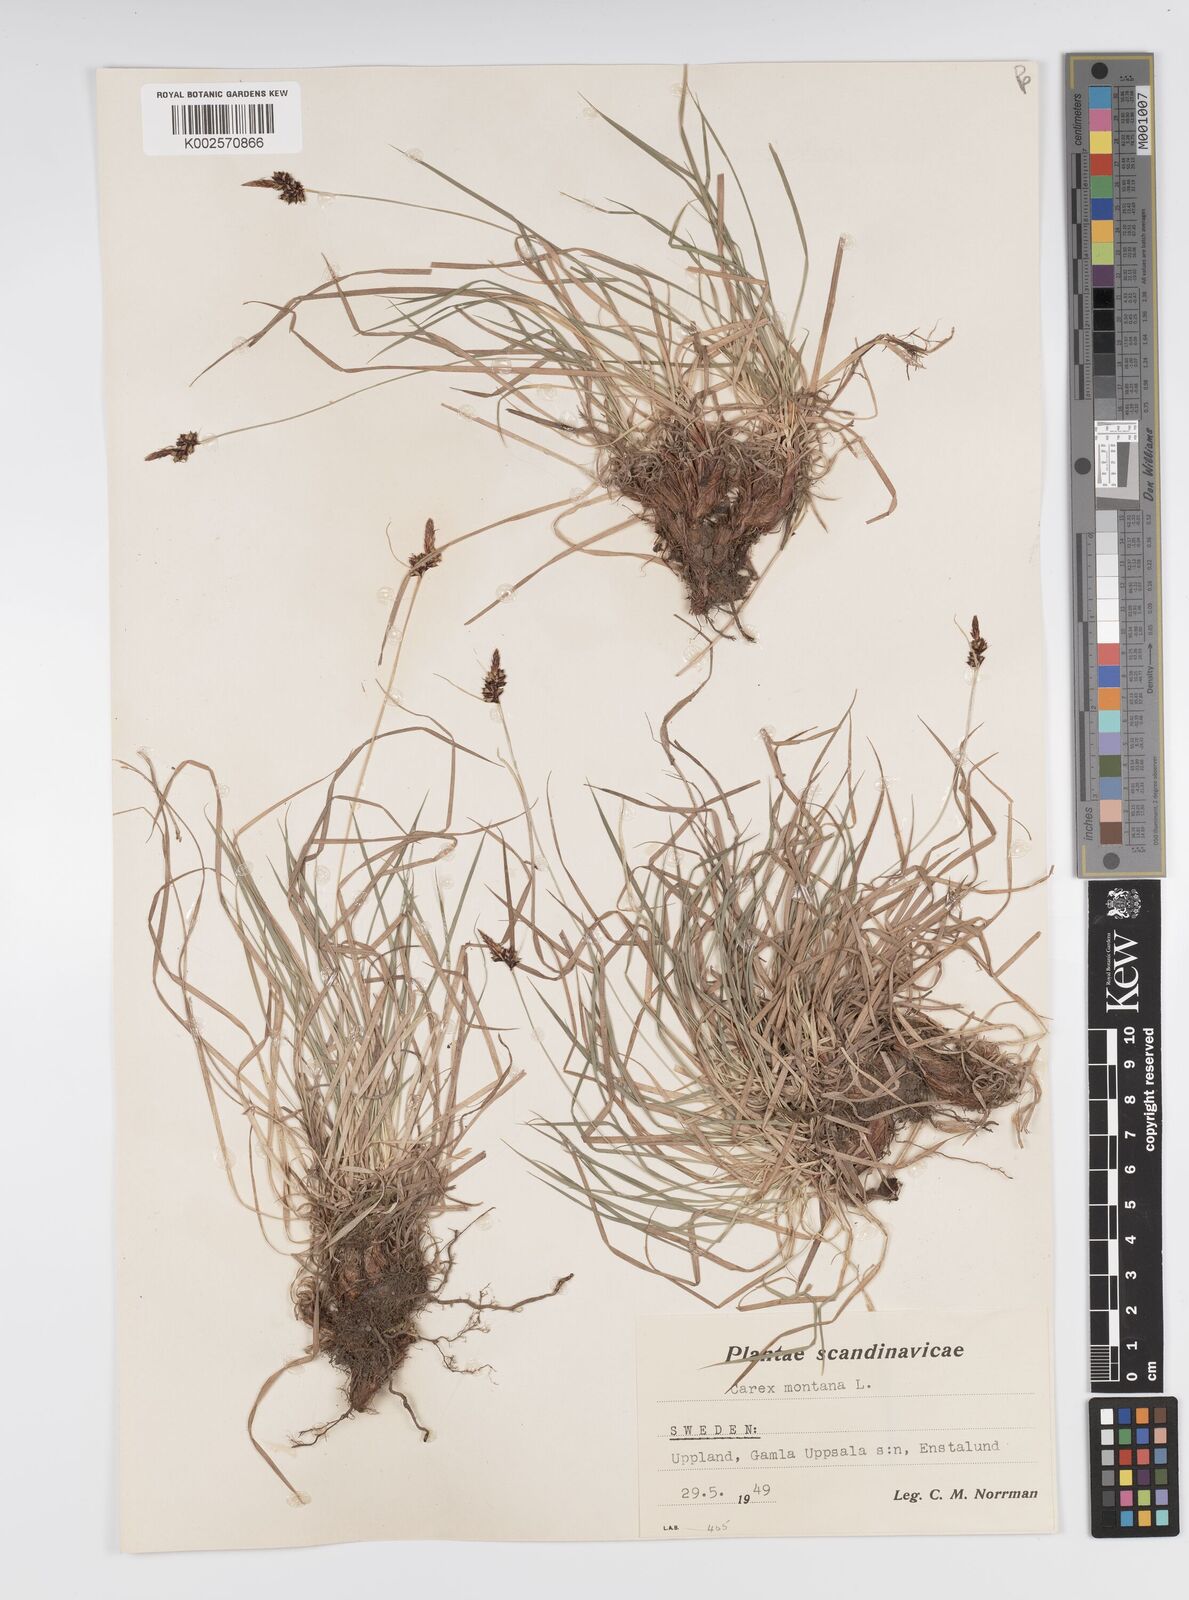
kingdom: Plantae
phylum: Tracheophyta
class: Liliopsida
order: Poales
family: Cyperaceae
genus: Carex
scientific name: Carex montana
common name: Soft-leaved sedge
